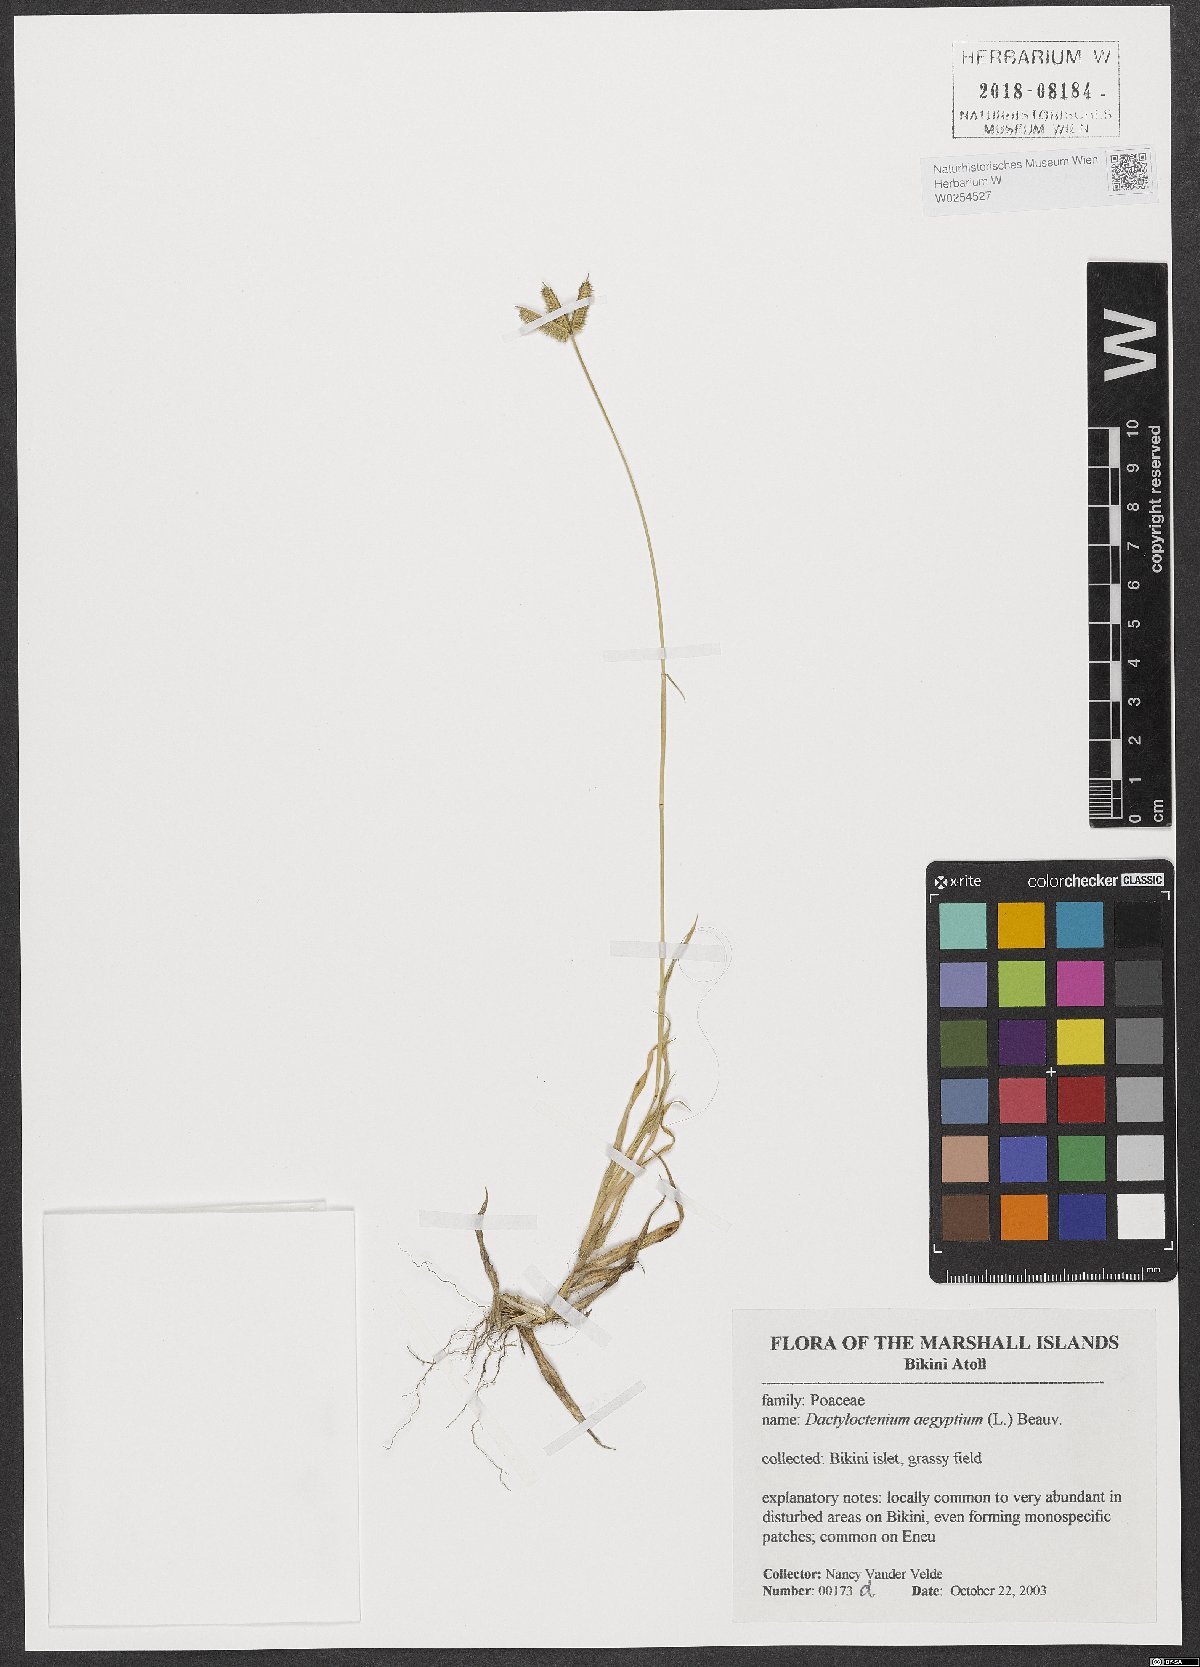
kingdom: Plantae
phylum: Tracheophyta
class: Liliopsida
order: Poales
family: Poaceae
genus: Dactyloctenium
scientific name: Dactyloctenium aegyptium
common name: Egyptian grass
